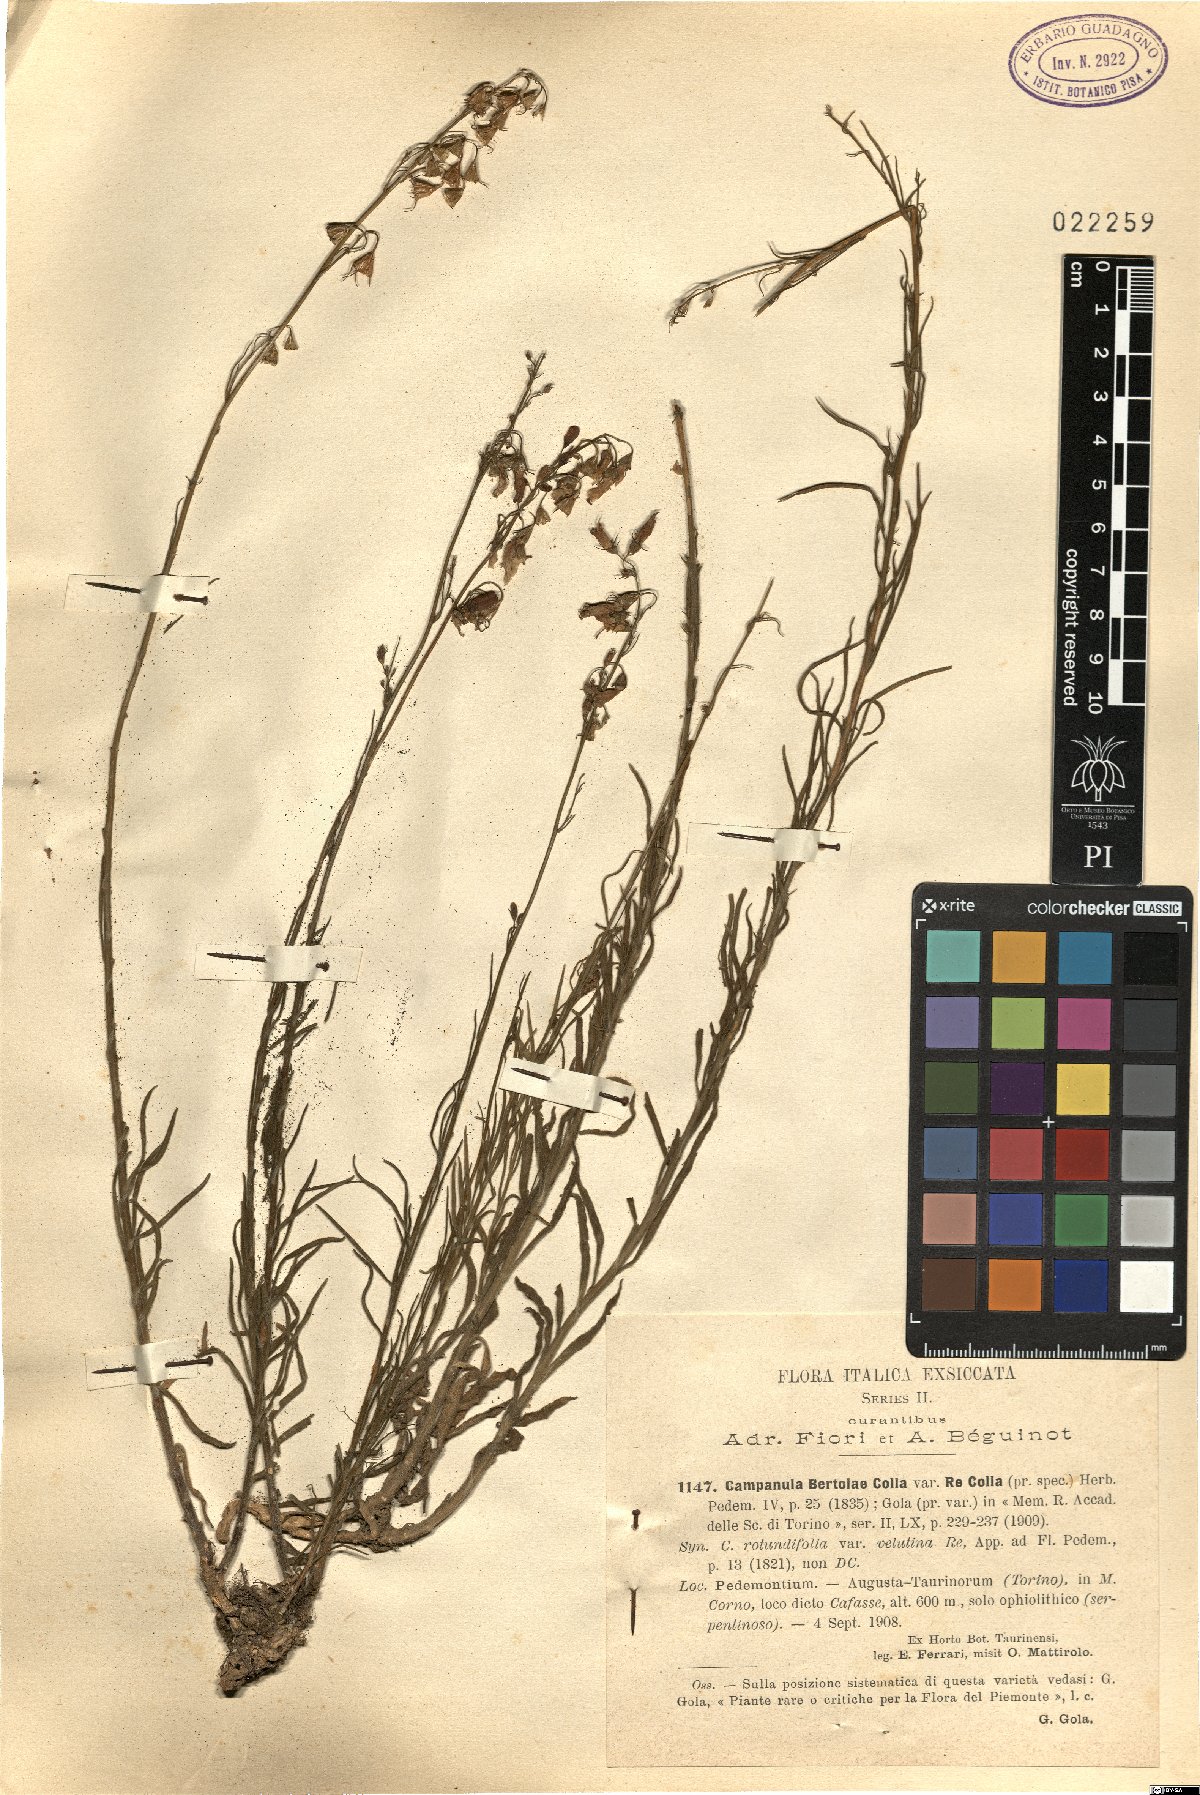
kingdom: Plantae
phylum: Tracheophyta
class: Magnoliopsida
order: Asterales
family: Campanulaceae
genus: Campanula
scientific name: Campanula bertolae
